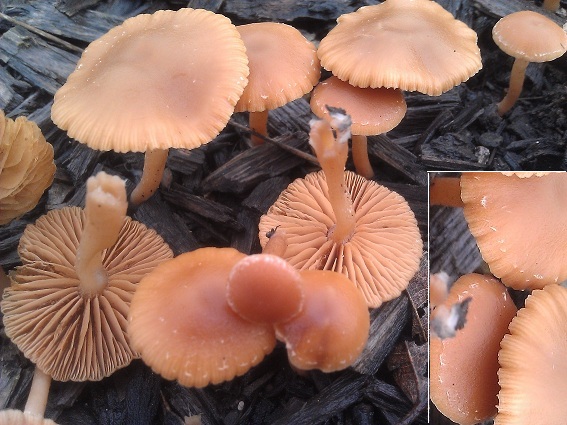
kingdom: Fungi
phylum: Basidiomycota
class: Agaricomycetes
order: Agaricales
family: Tubariaceae
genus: Tubaria
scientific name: Tubaria furfuracea
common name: kliddet fnughat
